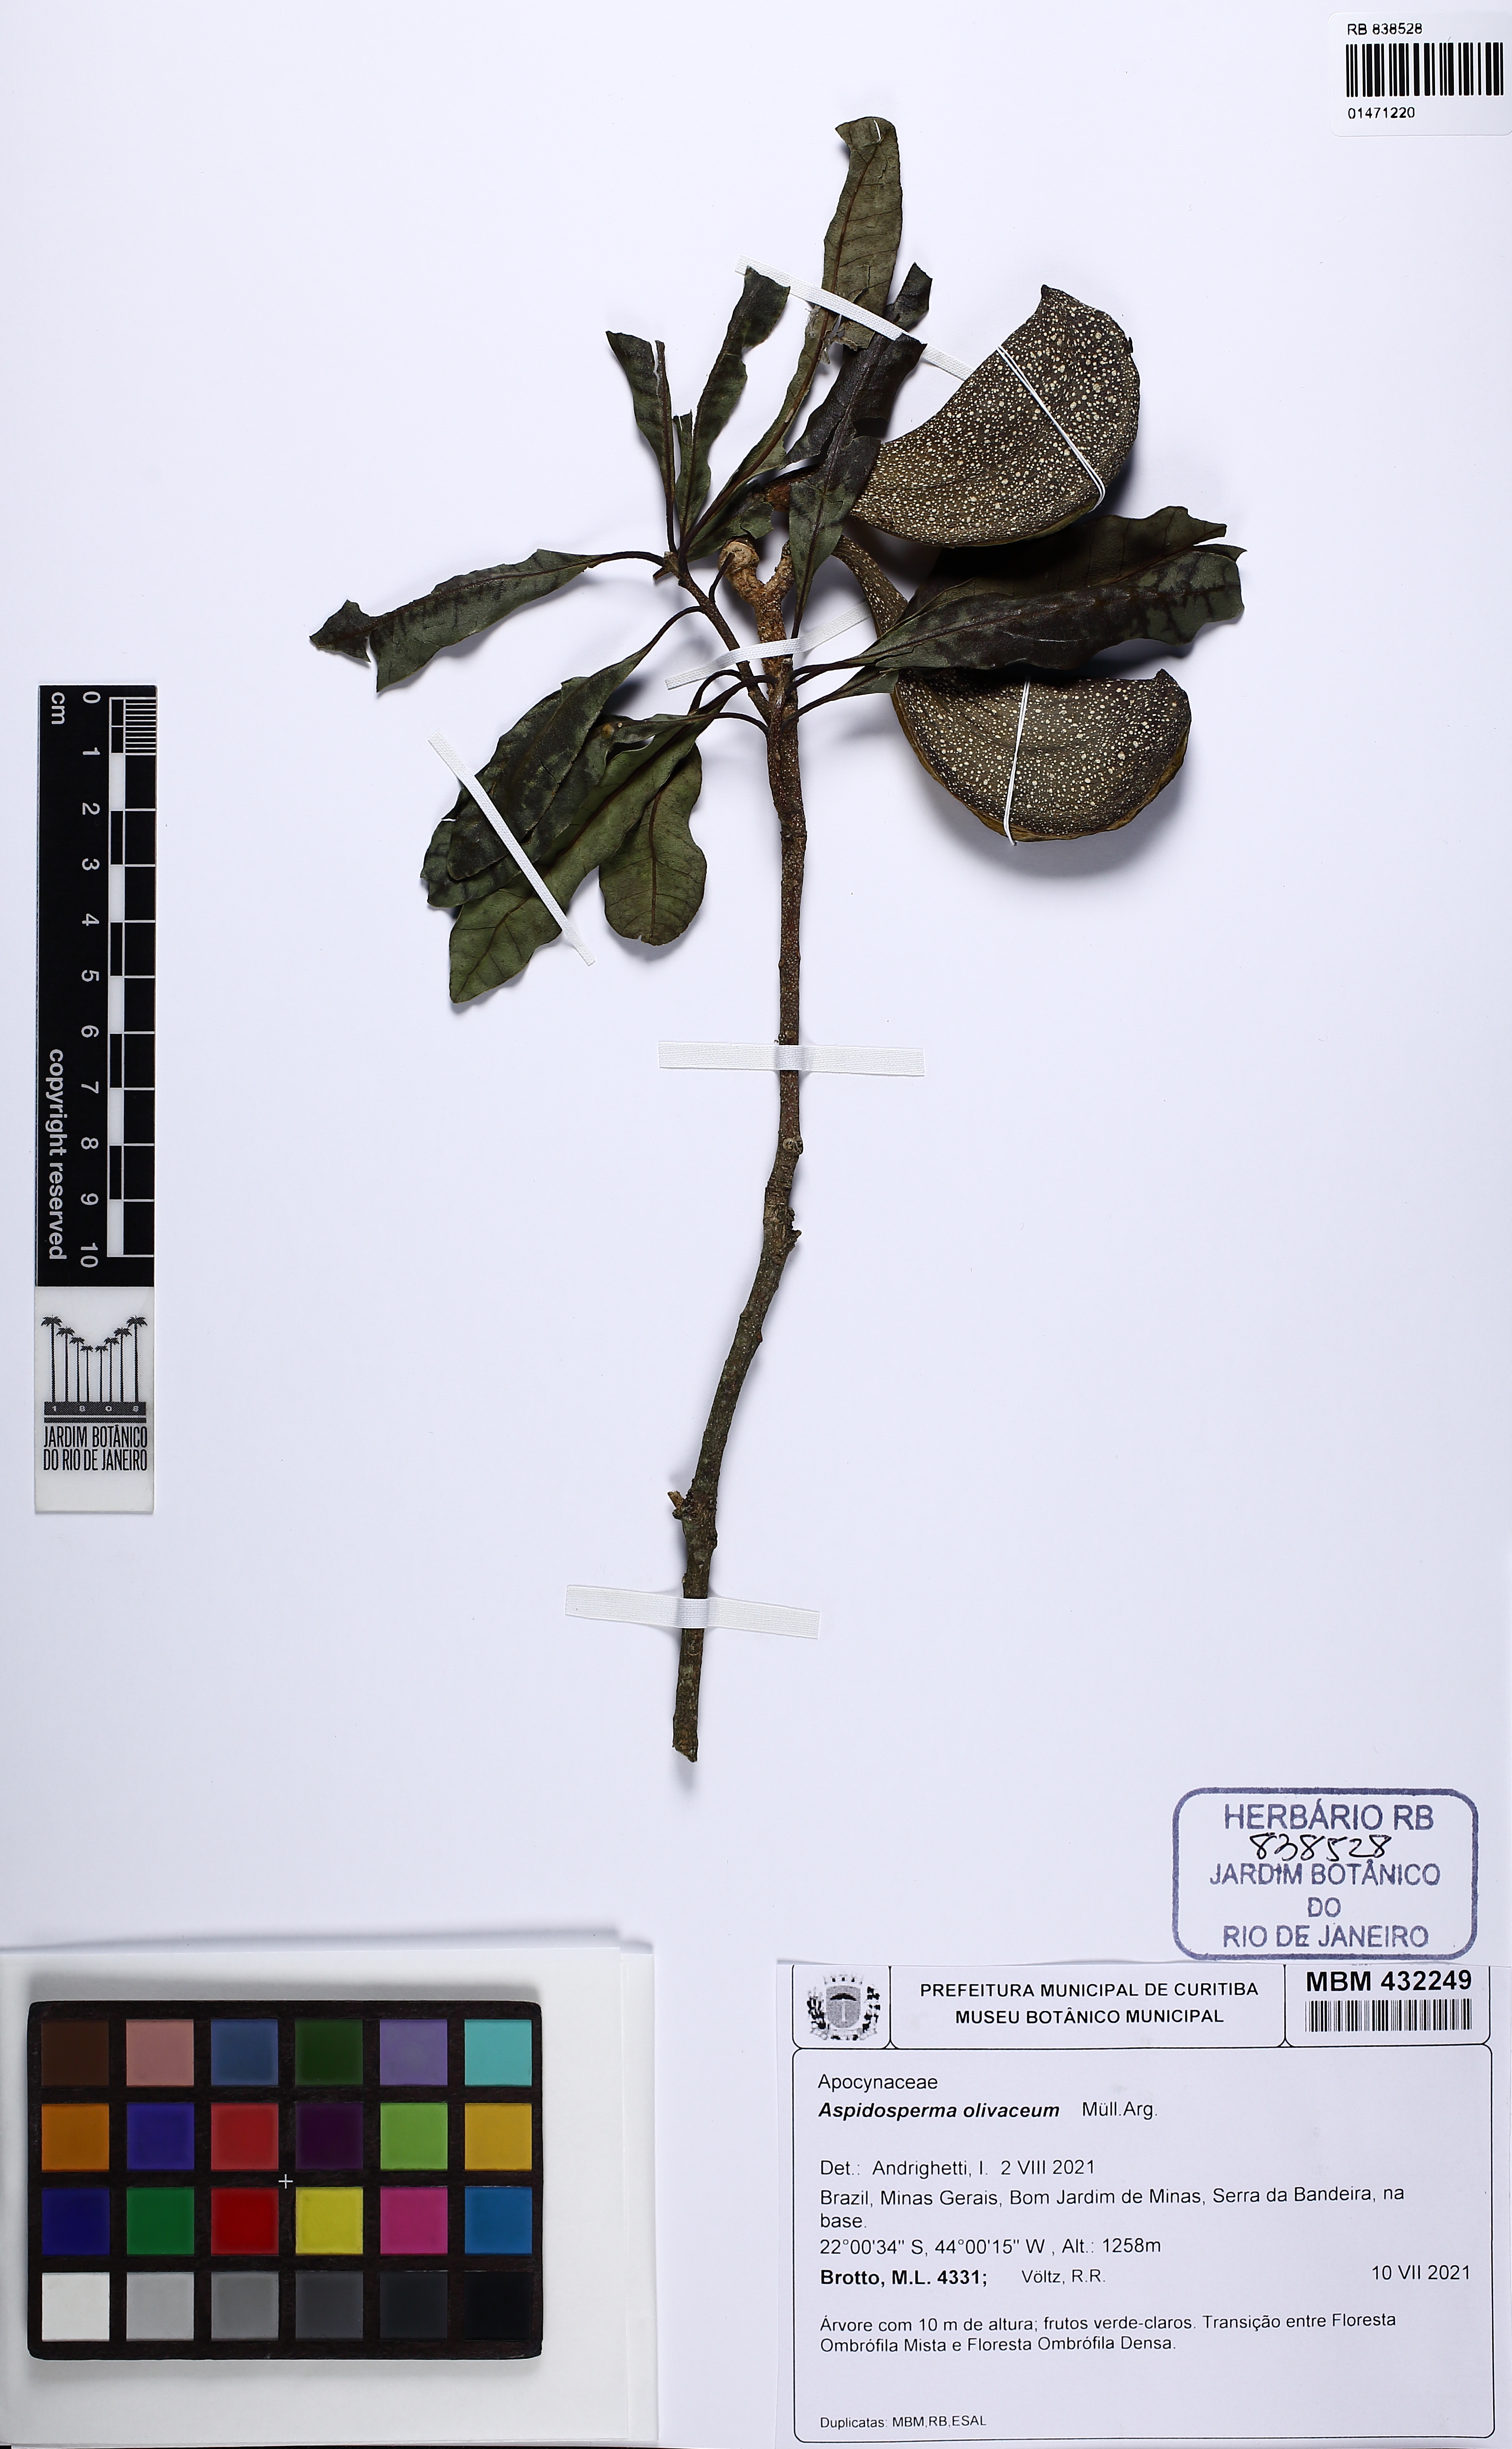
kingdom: Plantae
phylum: Tracheophyta
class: Magnoliopsida
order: Gentianales
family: Apocynaceae
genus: Aspidosperma
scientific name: Aspidosperma olivaceum
